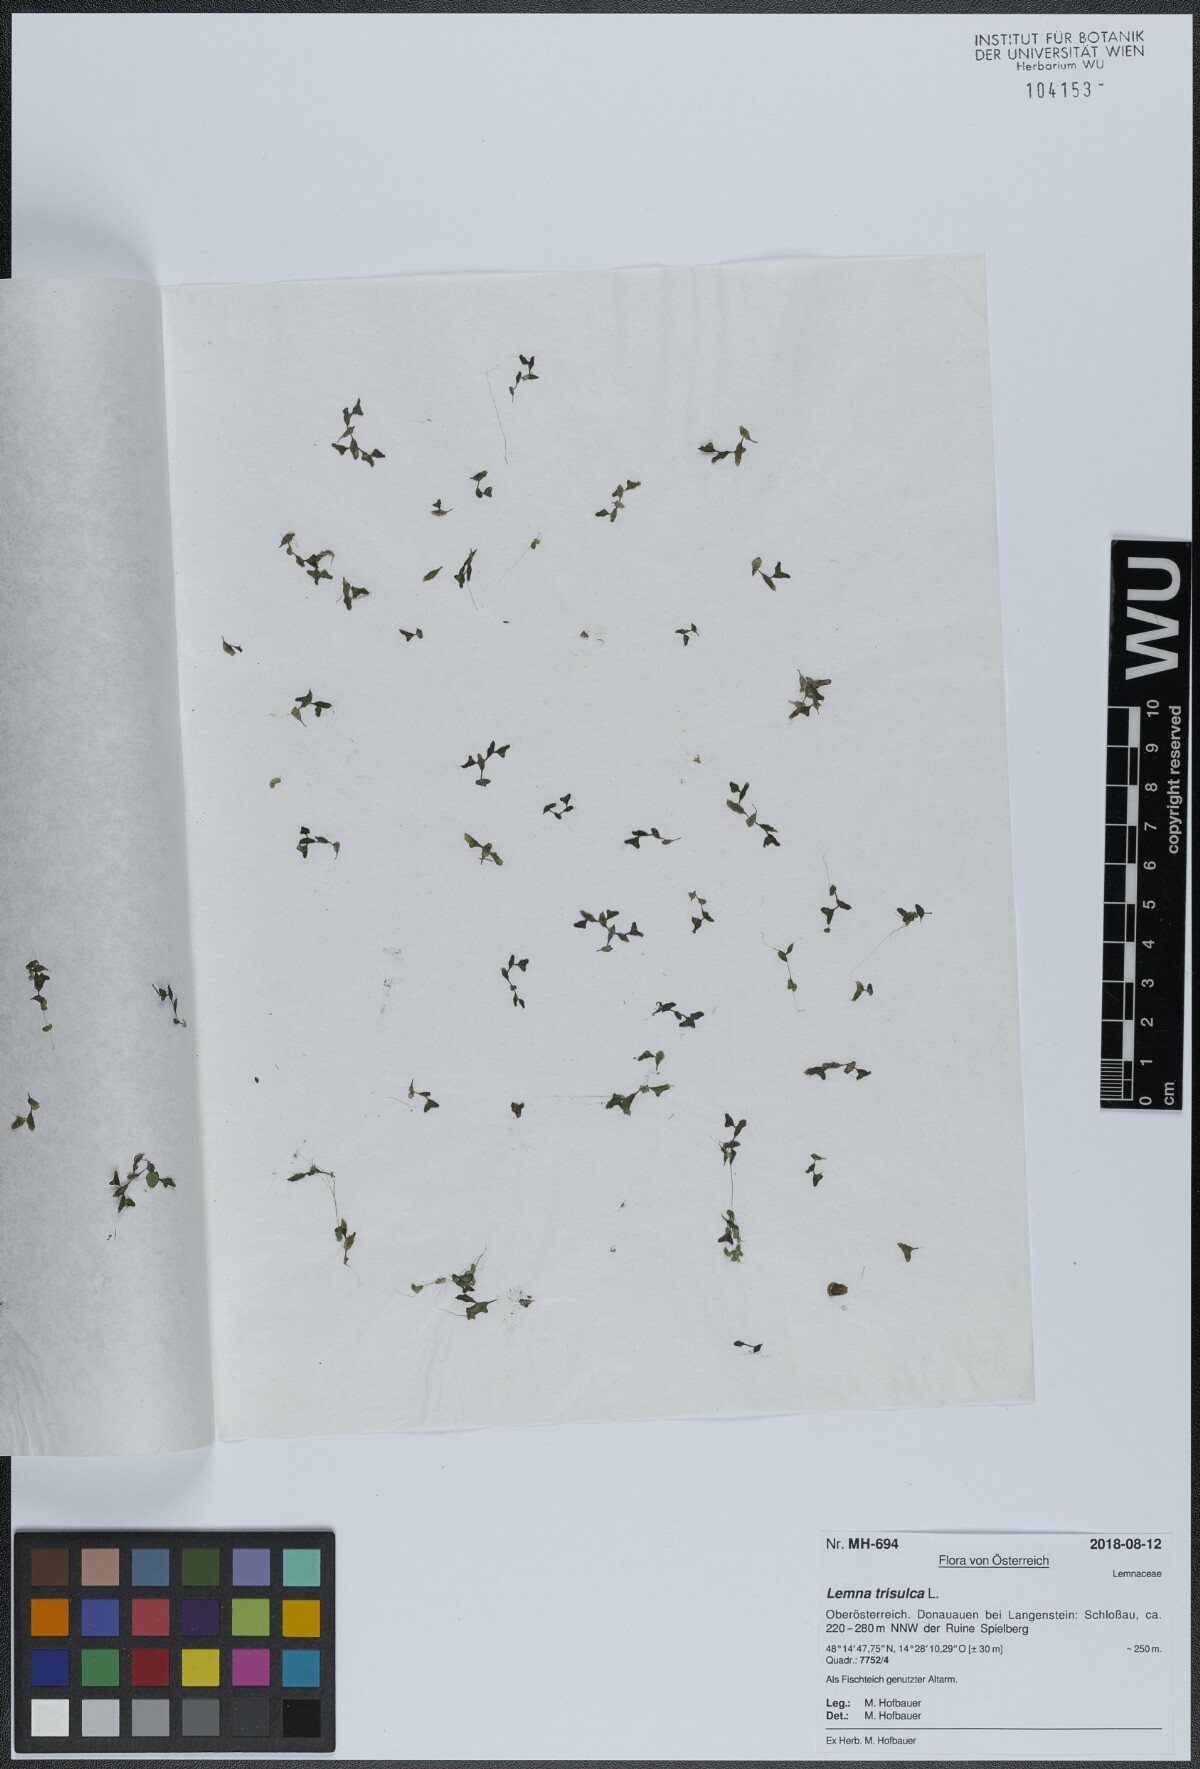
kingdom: Plantae
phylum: Tracheophyta
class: Liliopsida
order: Alismatales
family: Araceae
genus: Lemna
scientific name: Lemna trisulca
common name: Ivy-leaved duckweed
